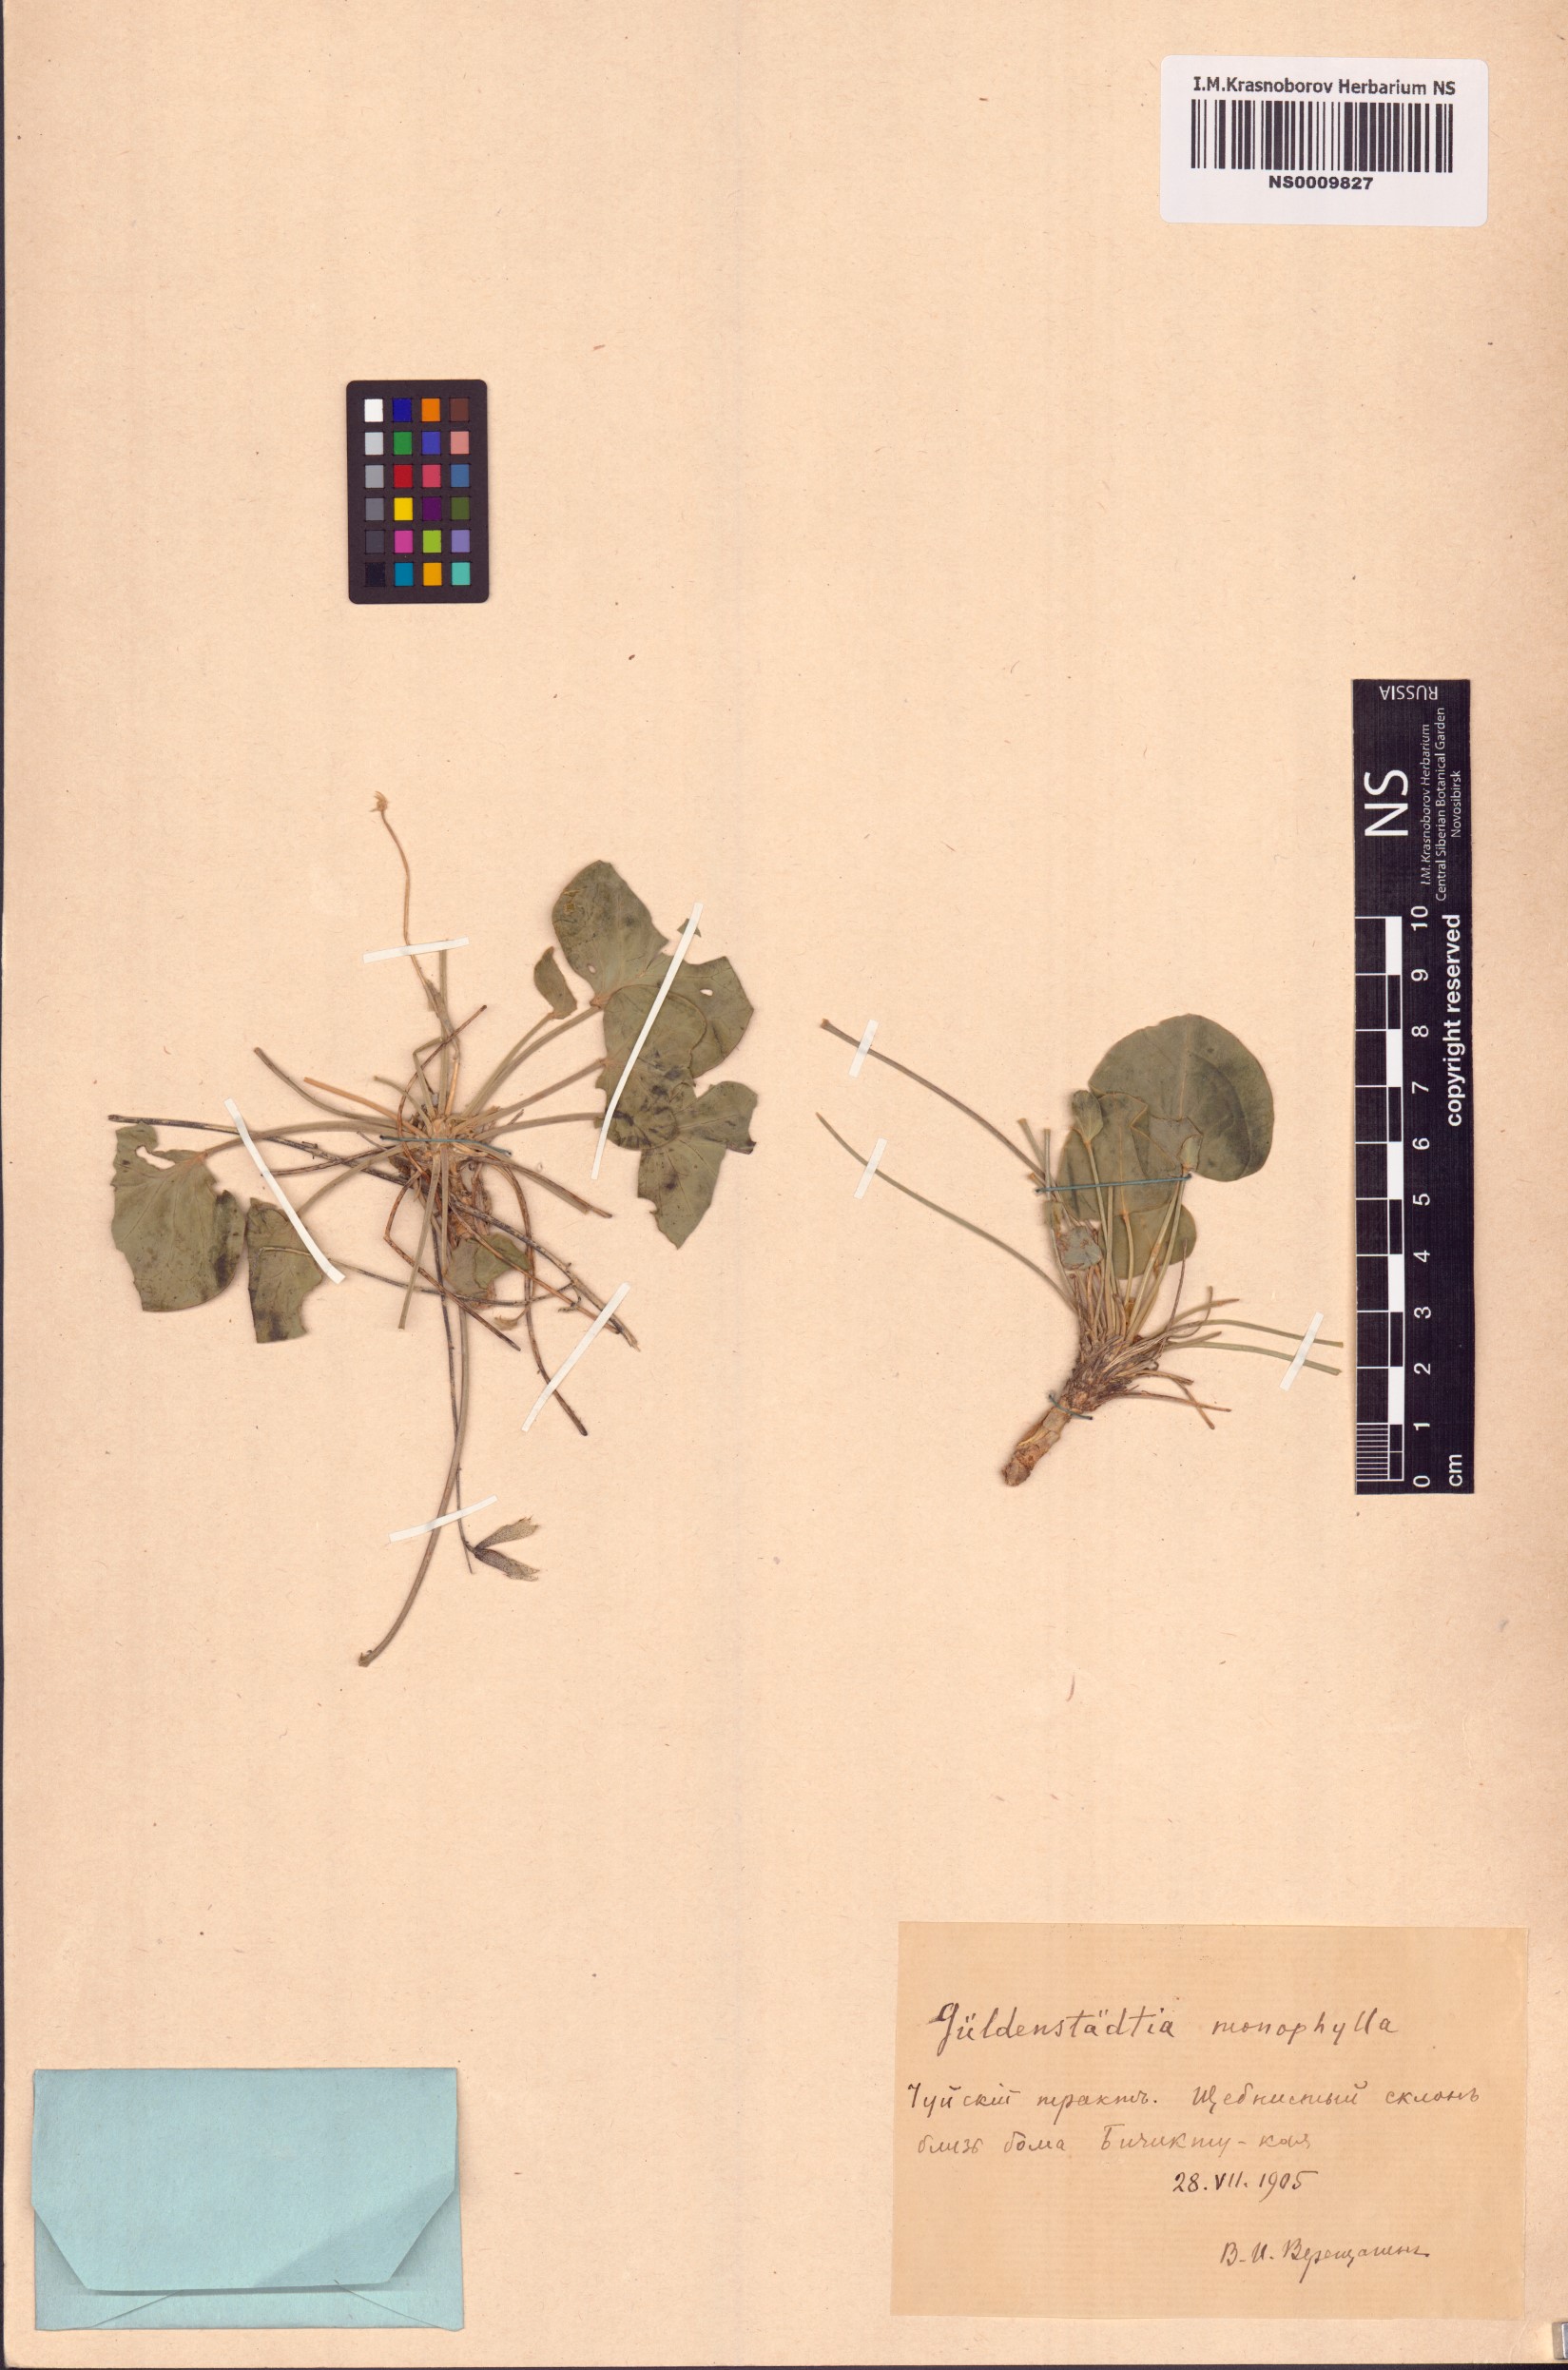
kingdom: Plantae
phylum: Tracheophyta
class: Magnoliopsida
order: Fabales
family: Fabaceae
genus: Gueldenstaedtia
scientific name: Gueldenstaedtia monophylla
